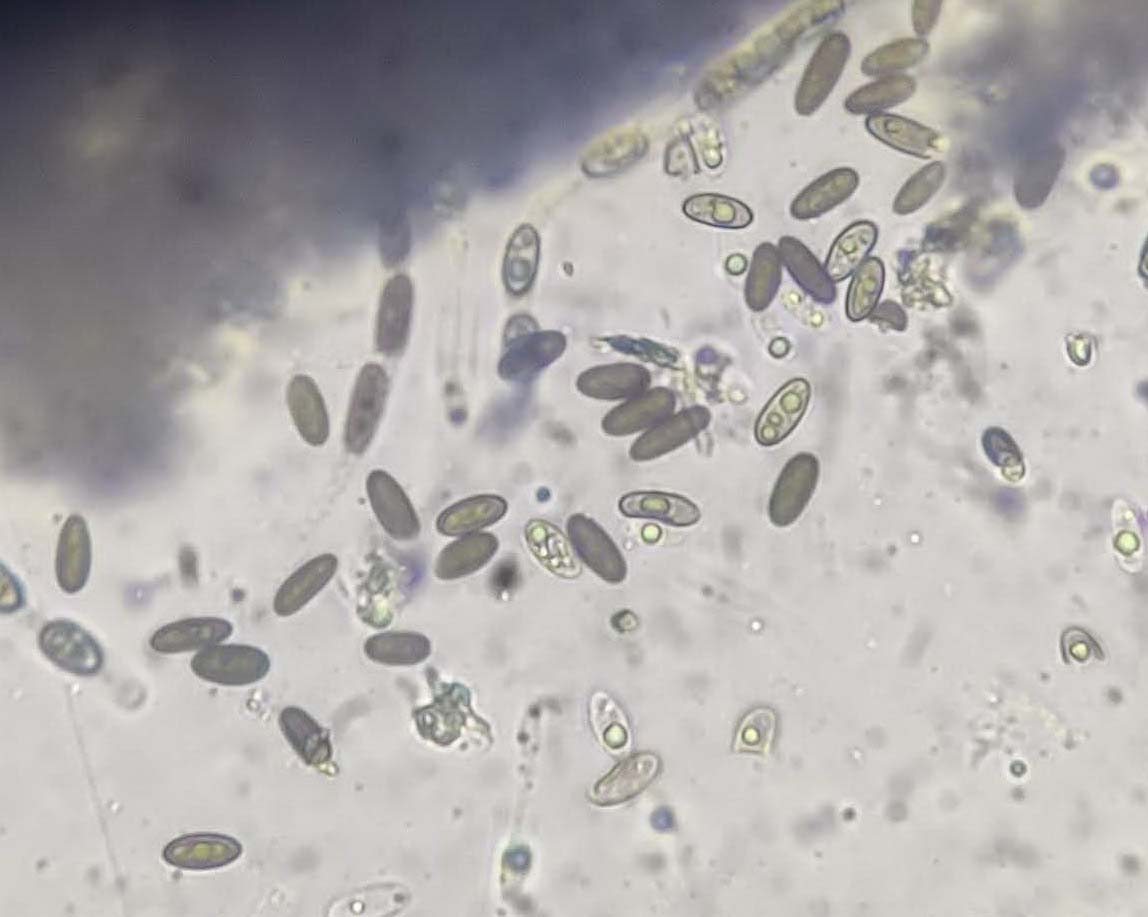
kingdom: Fungi
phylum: Ascomycota
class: Sordariomycetes
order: Xylariales
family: Diatrypaceae
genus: Anthostoma
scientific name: Anthostoma gastrinum
